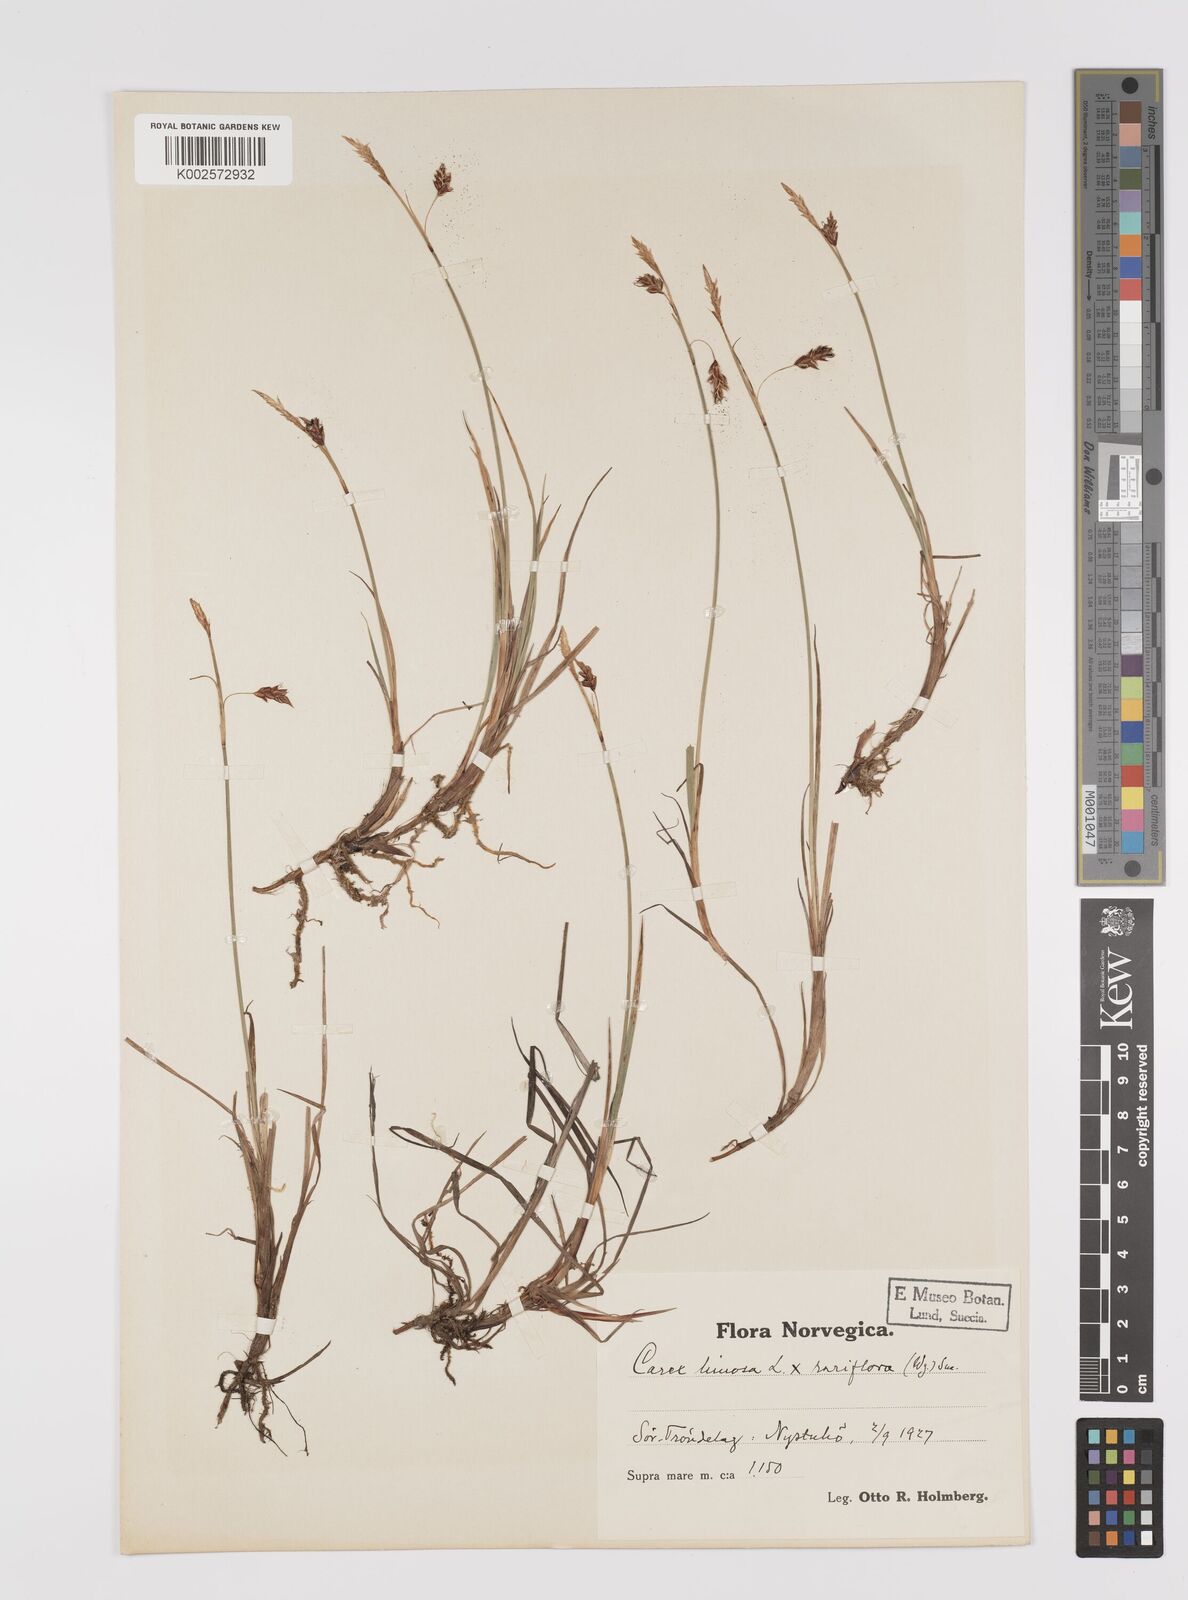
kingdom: Plantae
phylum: Tracheophyta
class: Liliopsida
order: Poales
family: Cyperaceae
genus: Carex
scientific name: Carex rariflora
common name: Loose-flowered alpine sedge
